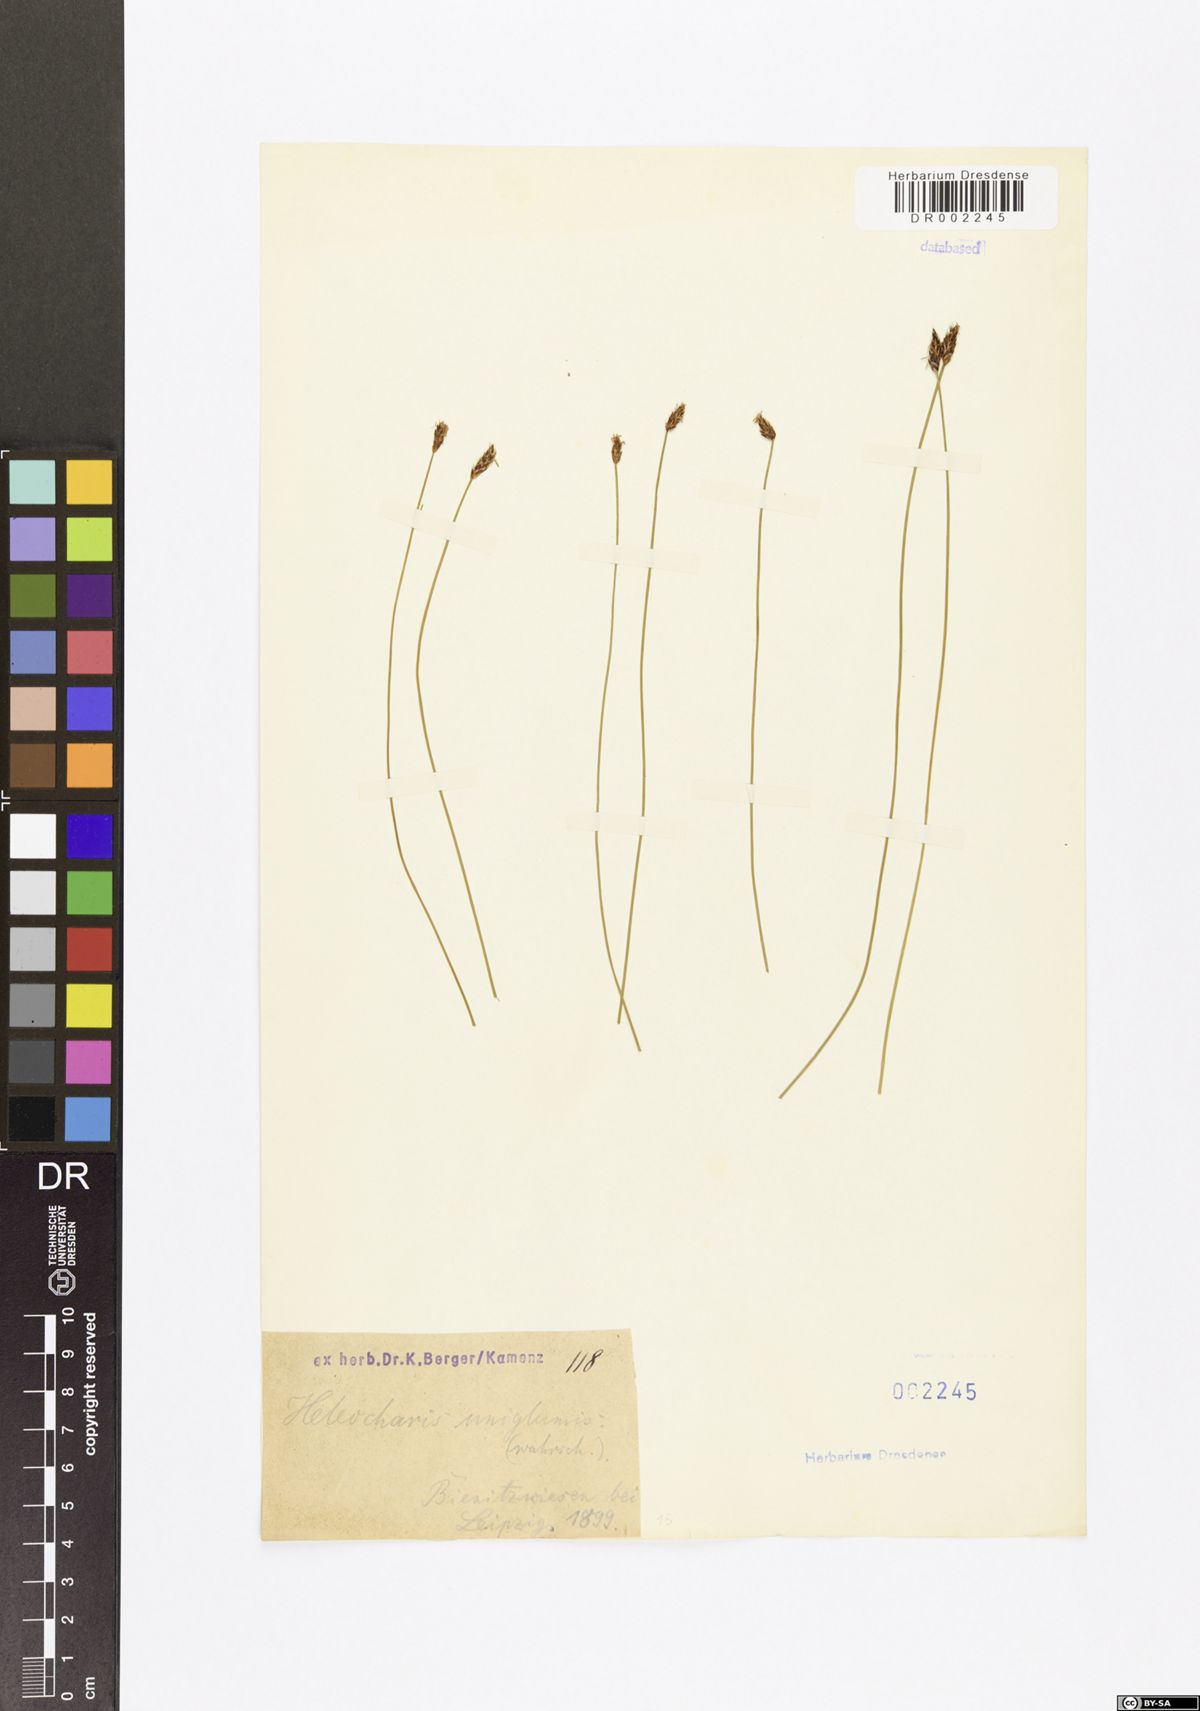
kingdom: Plantae
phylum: Tracheophyta
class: Liliopsida
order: Poales
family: Cyperaceae
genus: Eleocharis
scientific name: Eleocharis uniglumis
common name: Slender spike-rush
